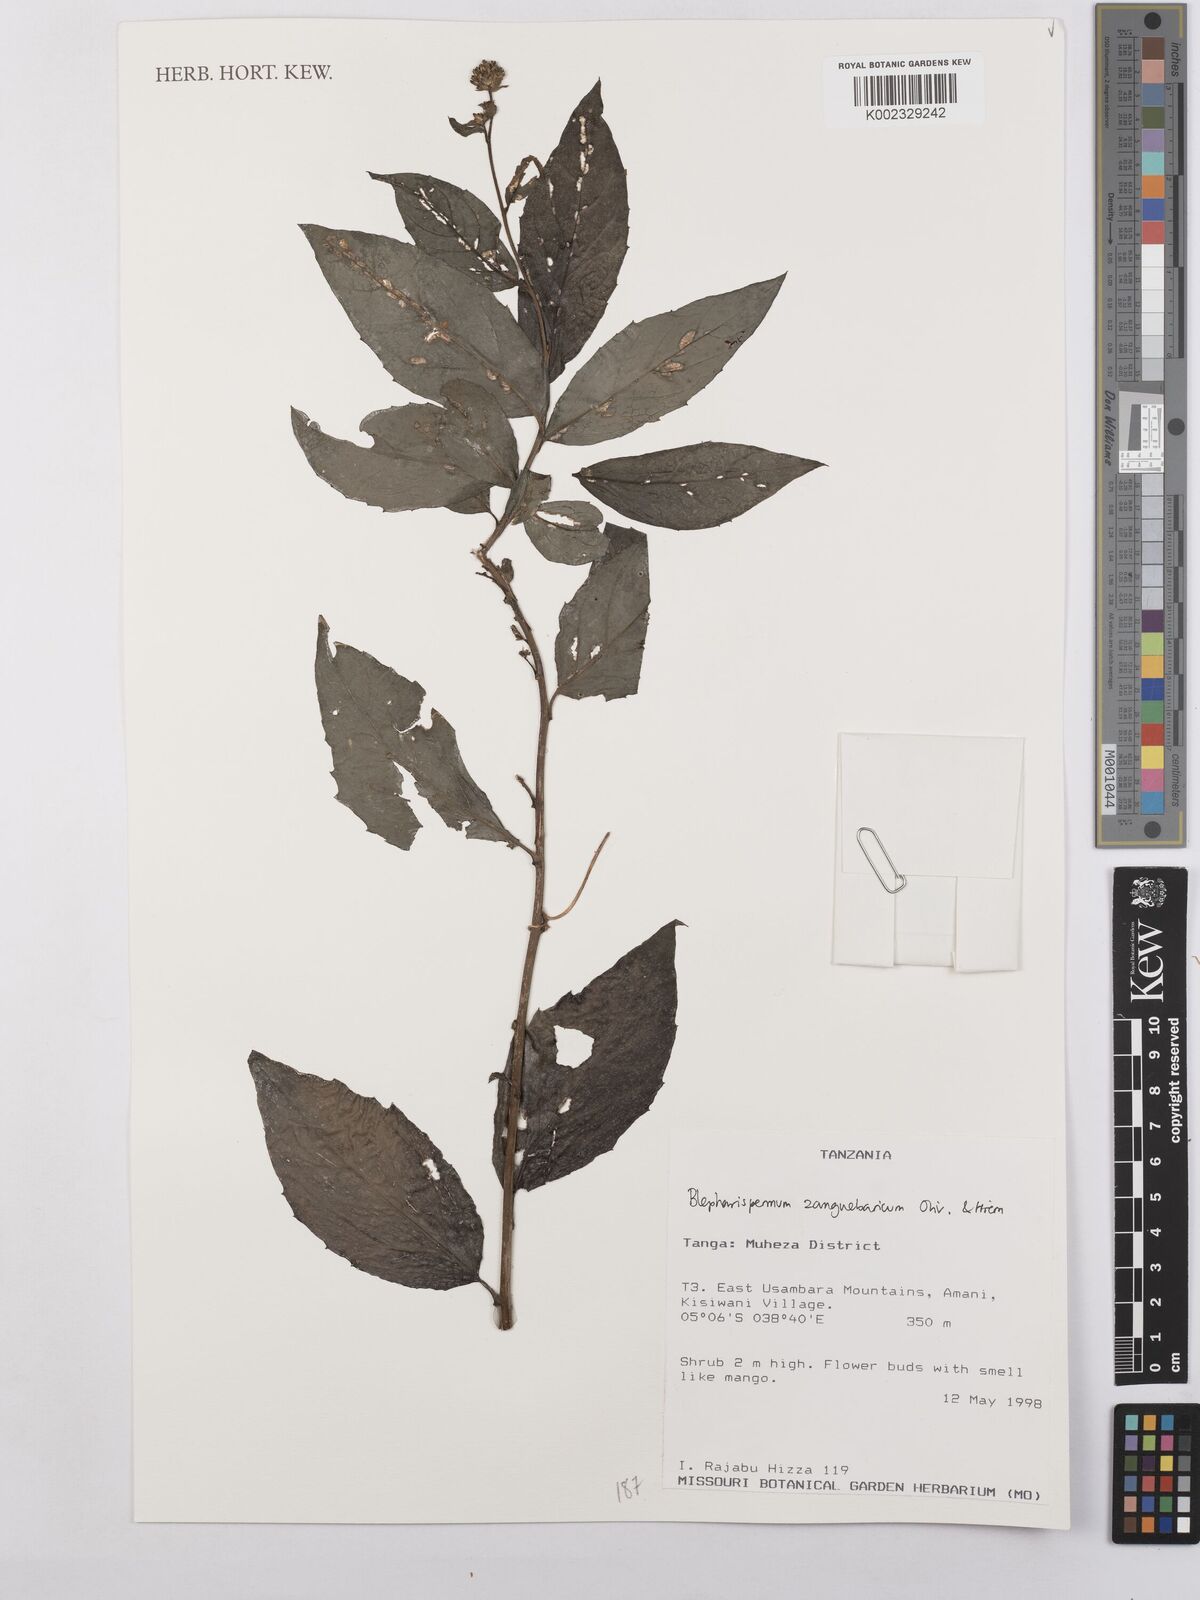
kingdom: Plantae
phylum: Tracheophyta
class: Magnoliopsida
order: Asterales
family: Asteraceae
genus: Blepharispermum
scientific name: Blepharispermum zanguebaricum
